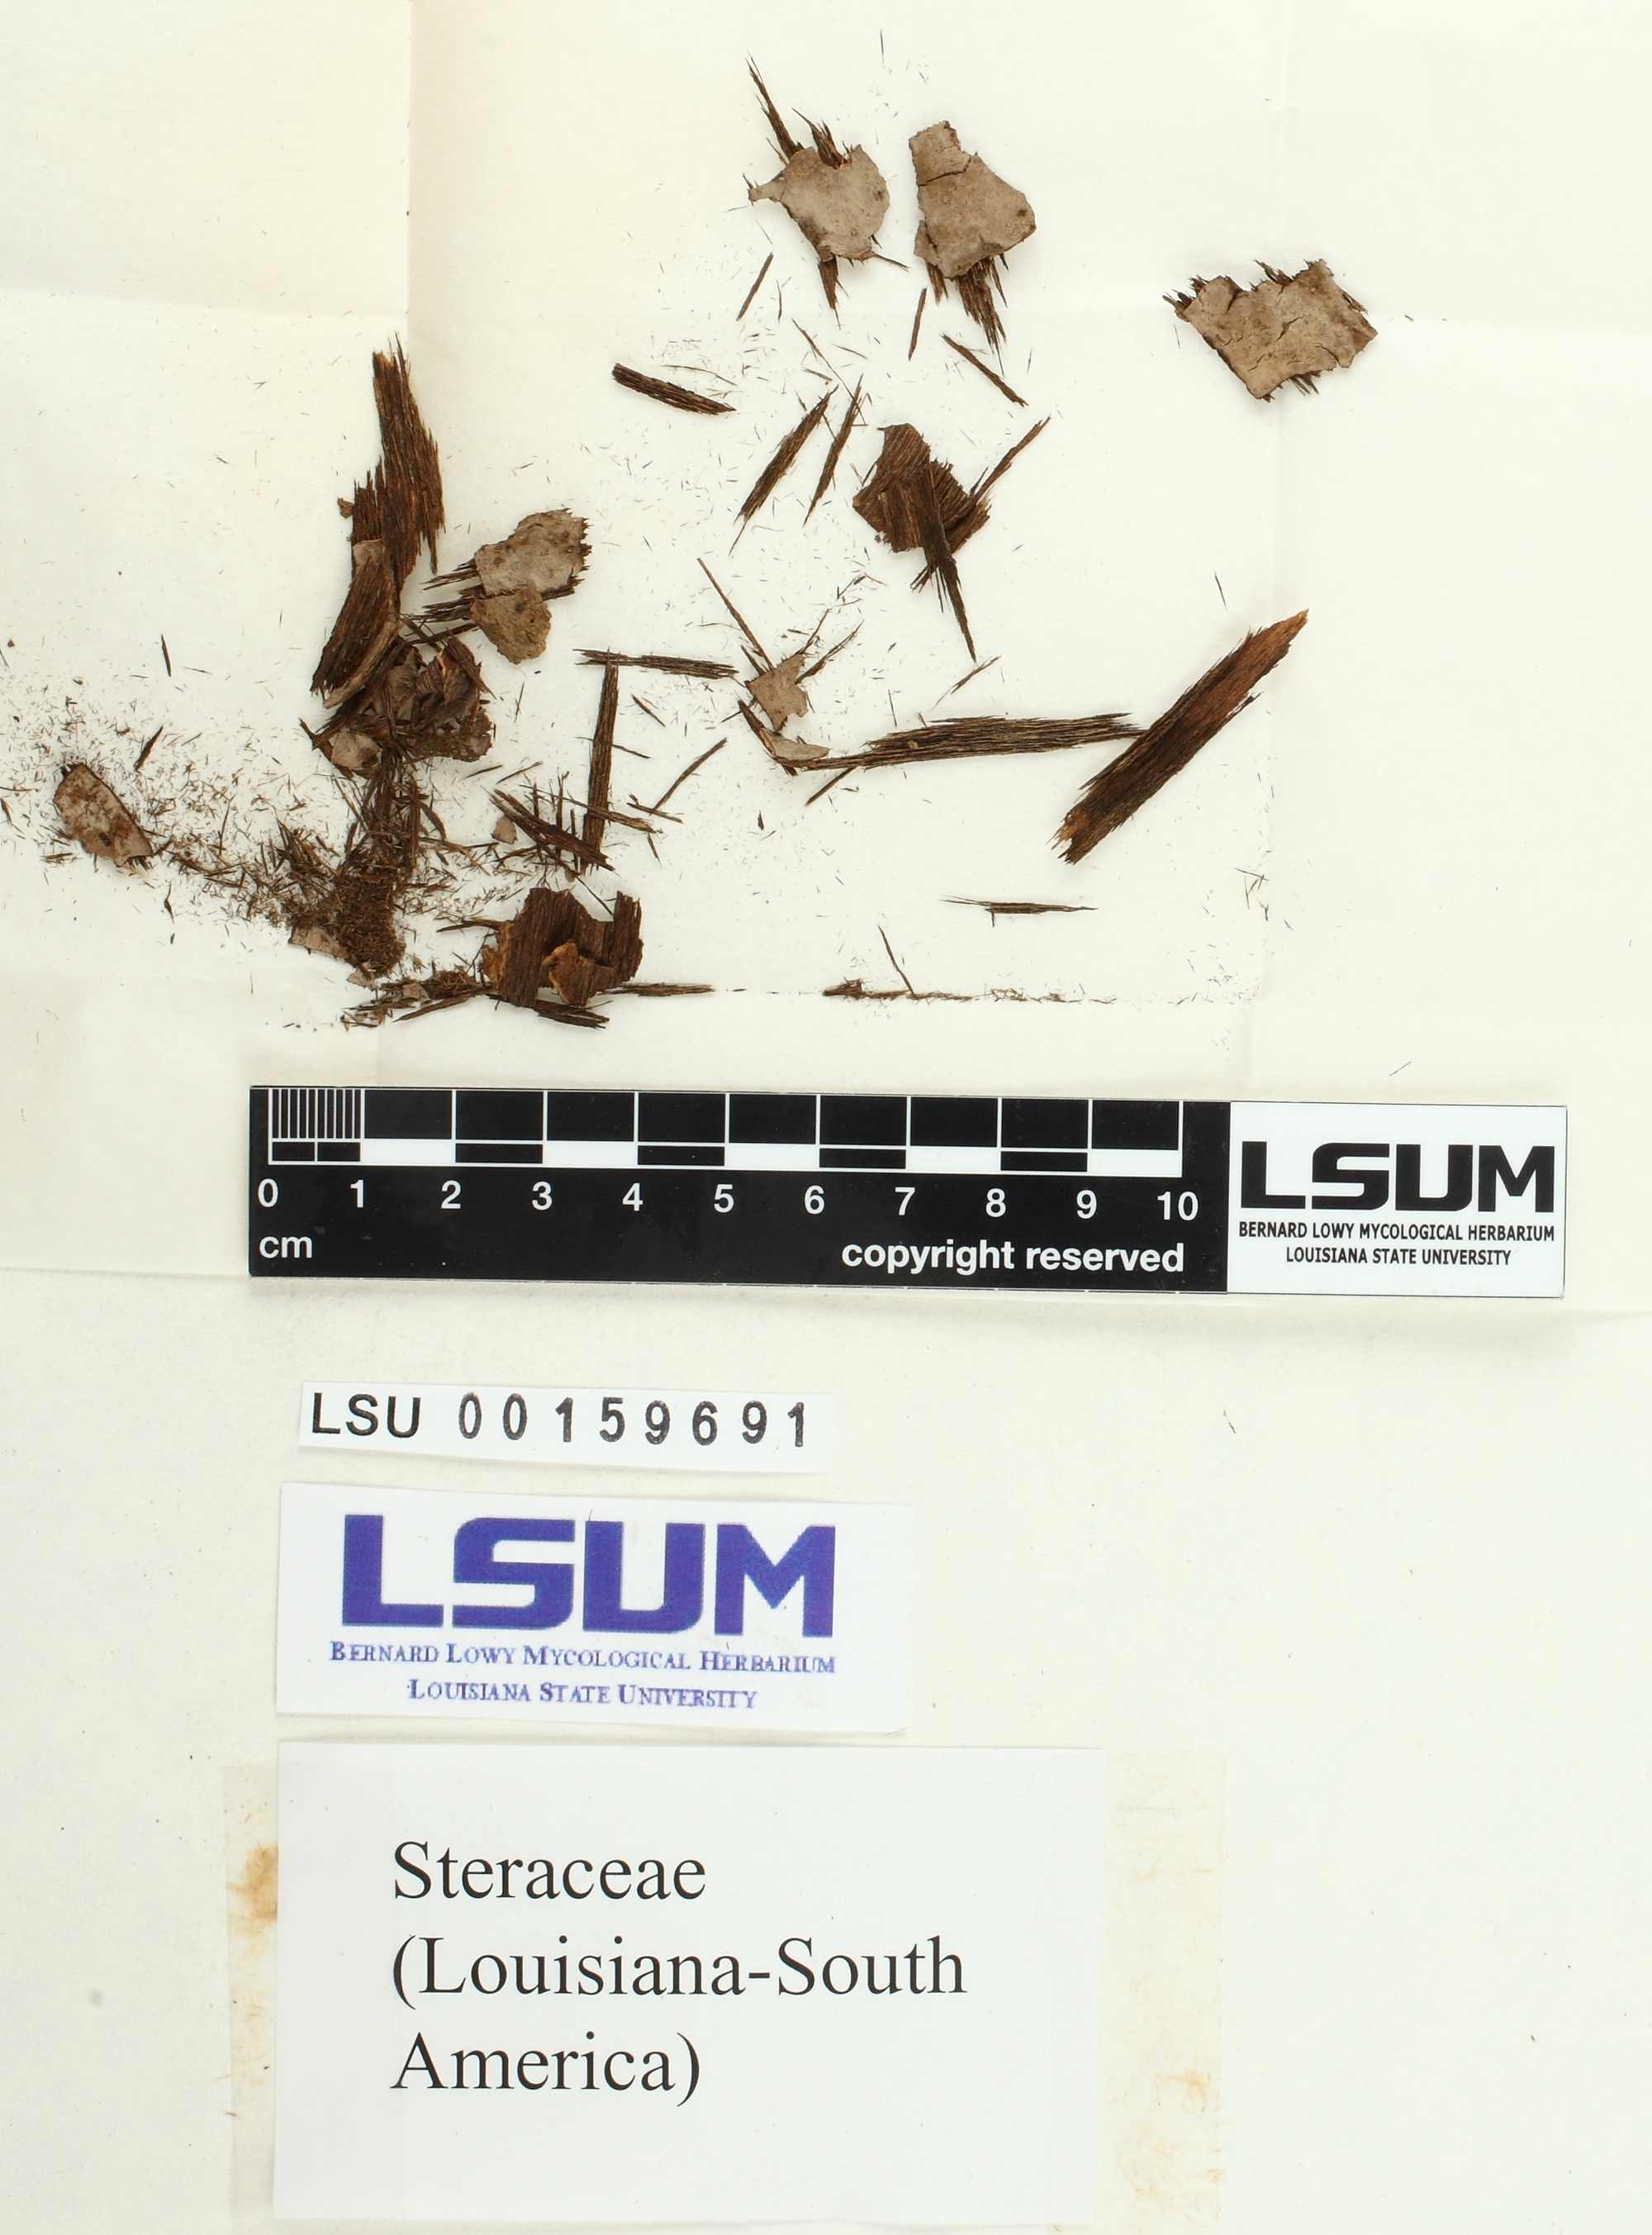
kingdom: Fungi
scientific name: Fungi
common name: Fungi
